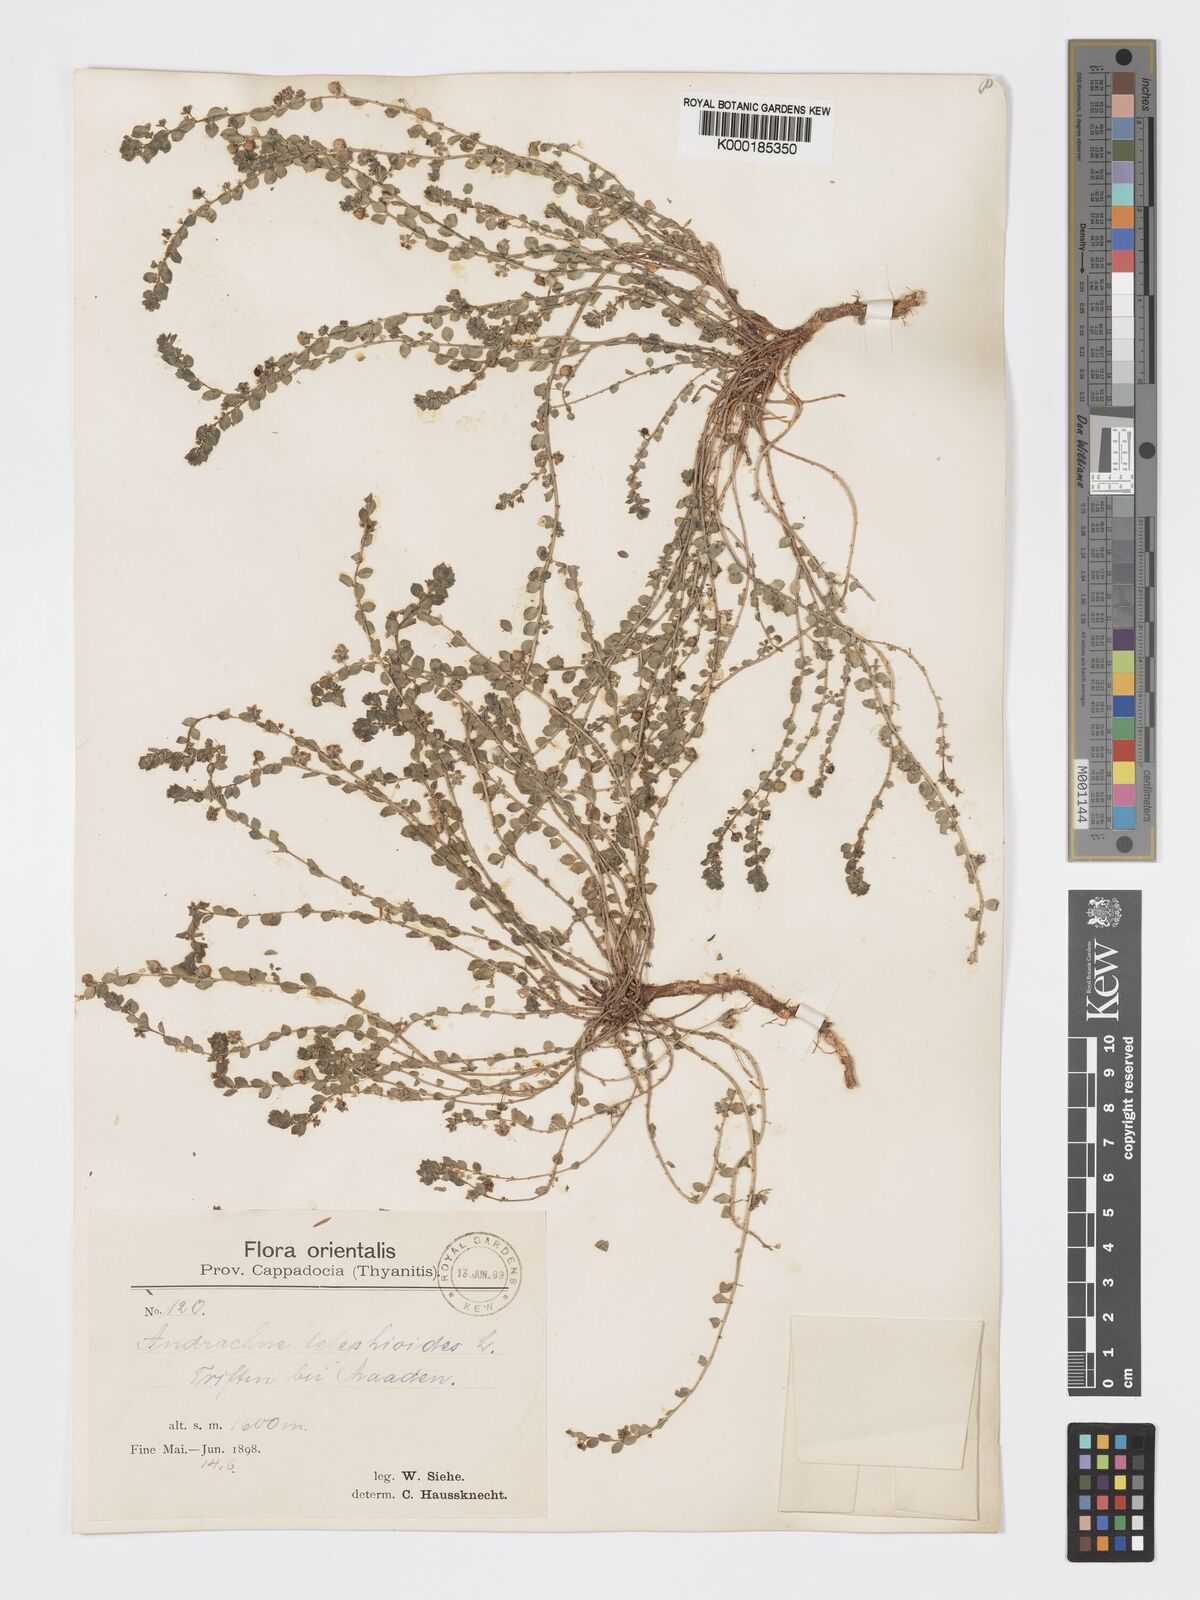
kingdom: Plantae
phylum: Tracheophyta
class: Magnoliopsida
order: Malpighiales
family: Phyllanthaceae
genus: Andrachne
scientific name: Andrachne telephioides
